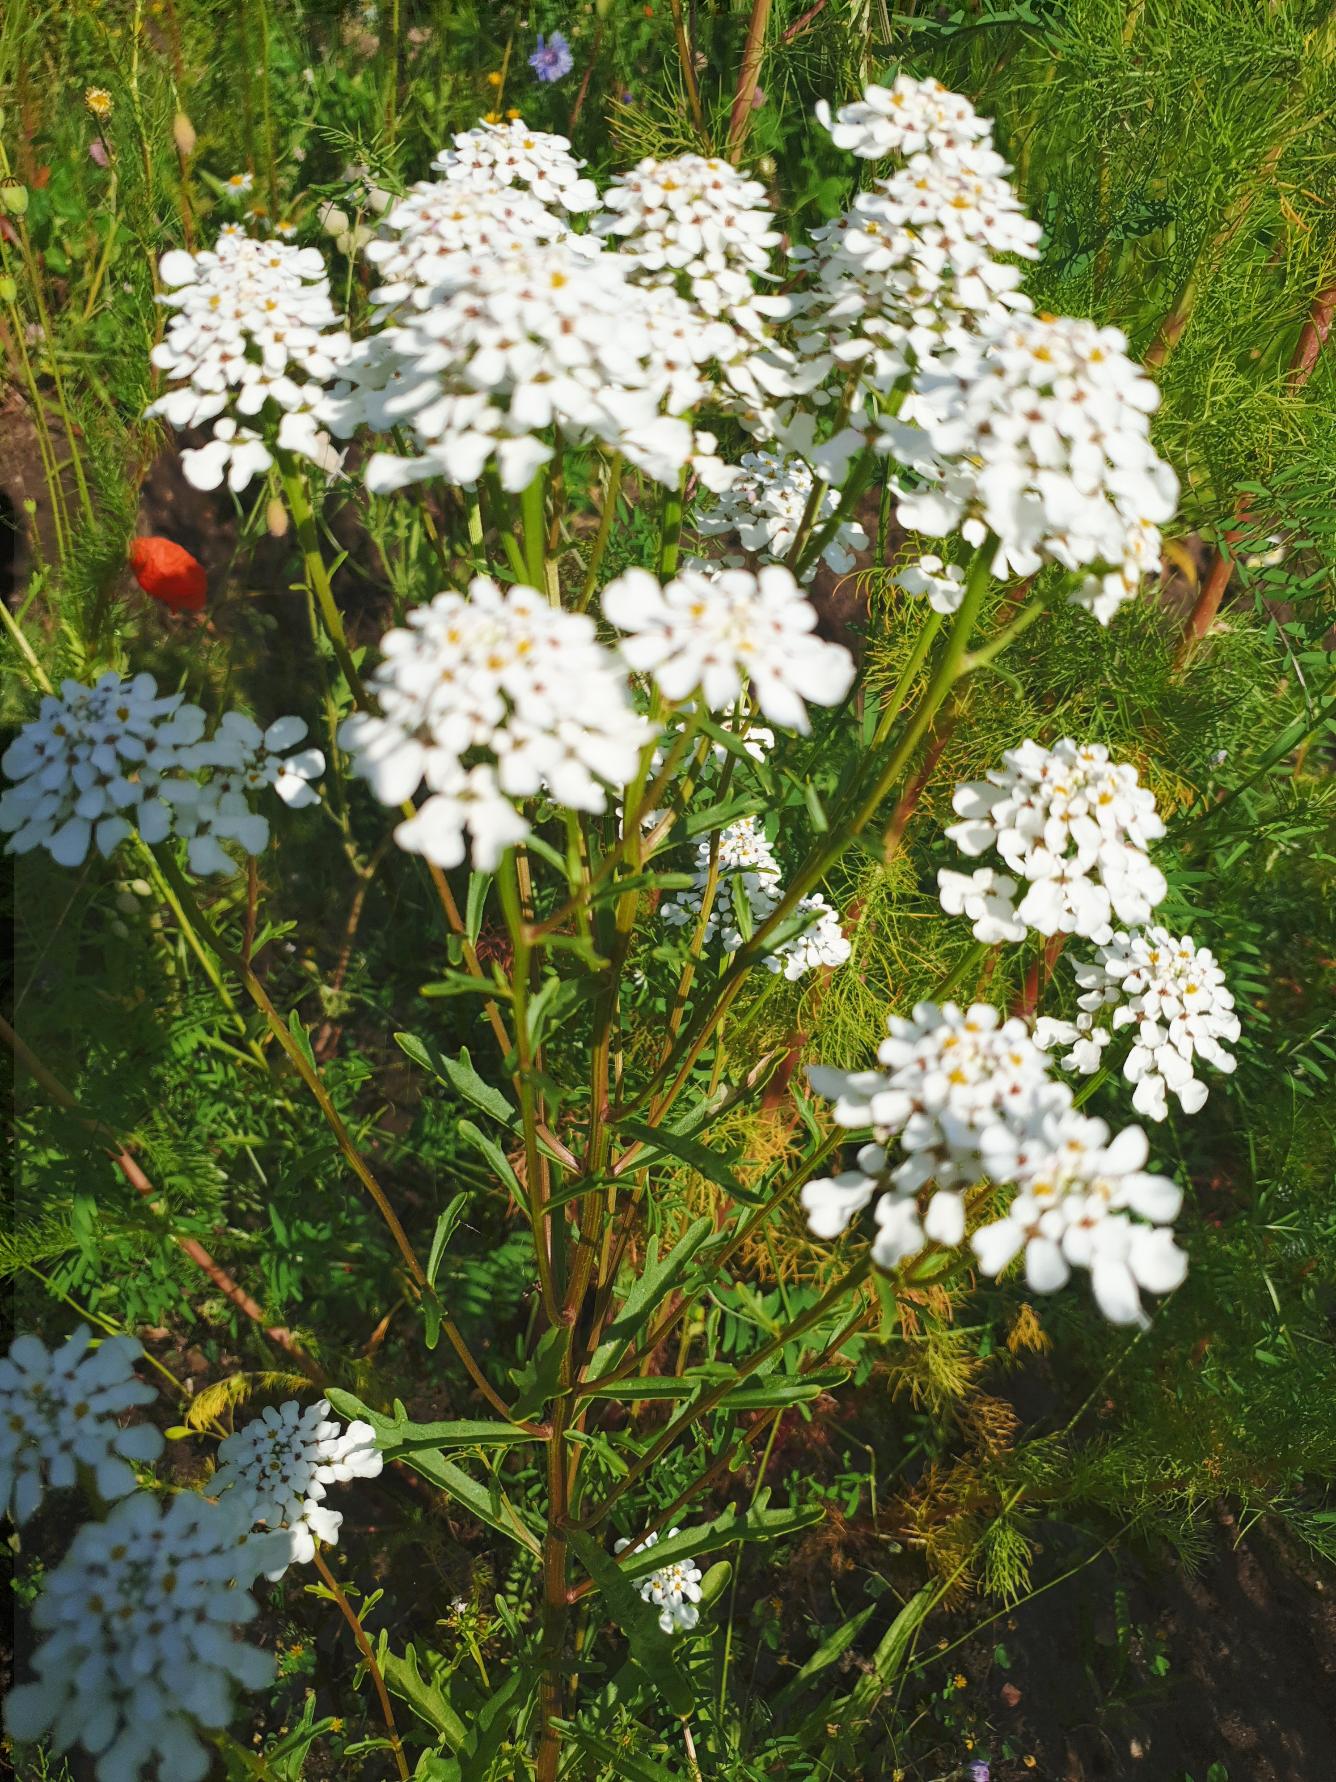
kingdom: Plantae
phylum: Tracheophyta
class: Magnoliopsida
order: Brassicales
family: Brassicaceae
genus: Iberis
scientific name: Iberis amara
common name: Hvid sløjfeblomst
